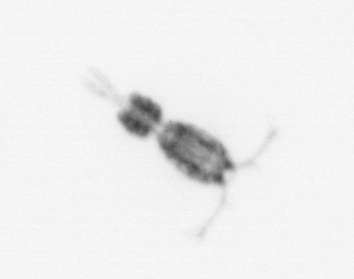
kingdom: Animalia
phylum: Arthropoda
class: Copepoda
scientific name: Copepoda
